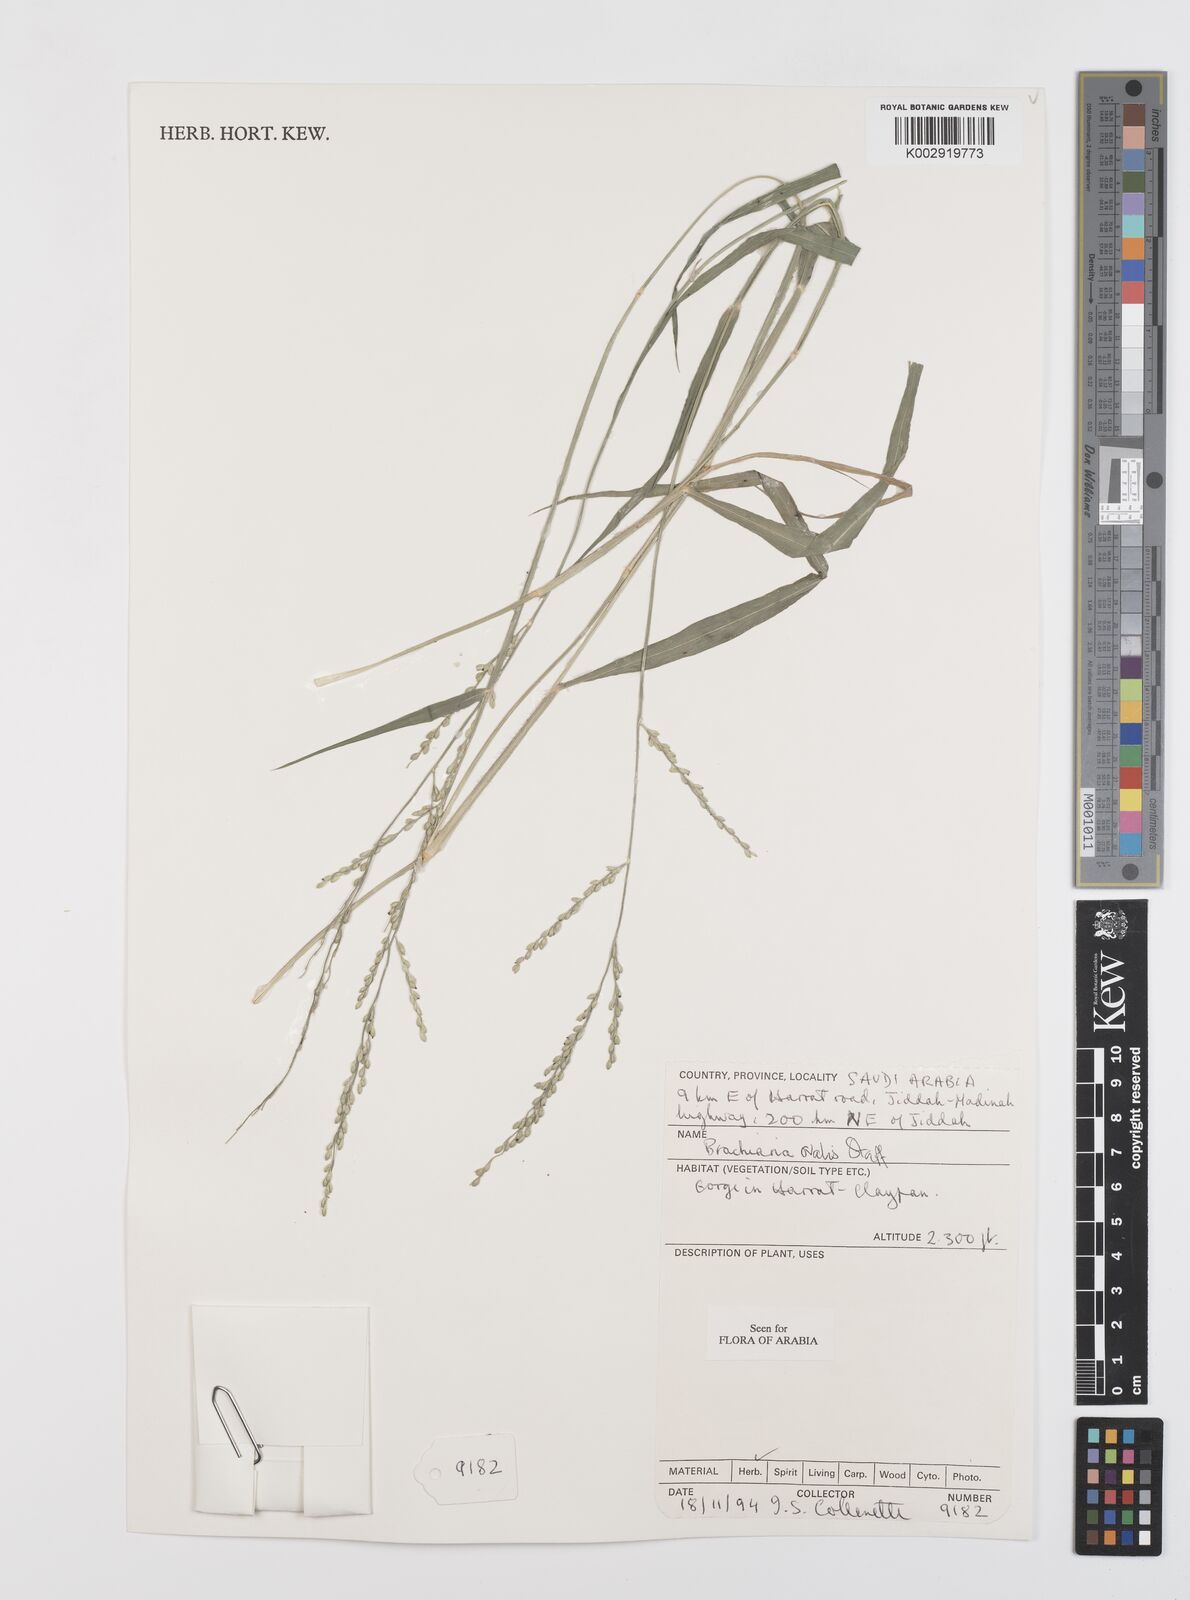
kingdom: Plantae
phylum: Tracheophyta
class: Liliopsida
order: Poales
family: Poaceae
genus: Urochloa
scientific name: Urochloa ovalis
